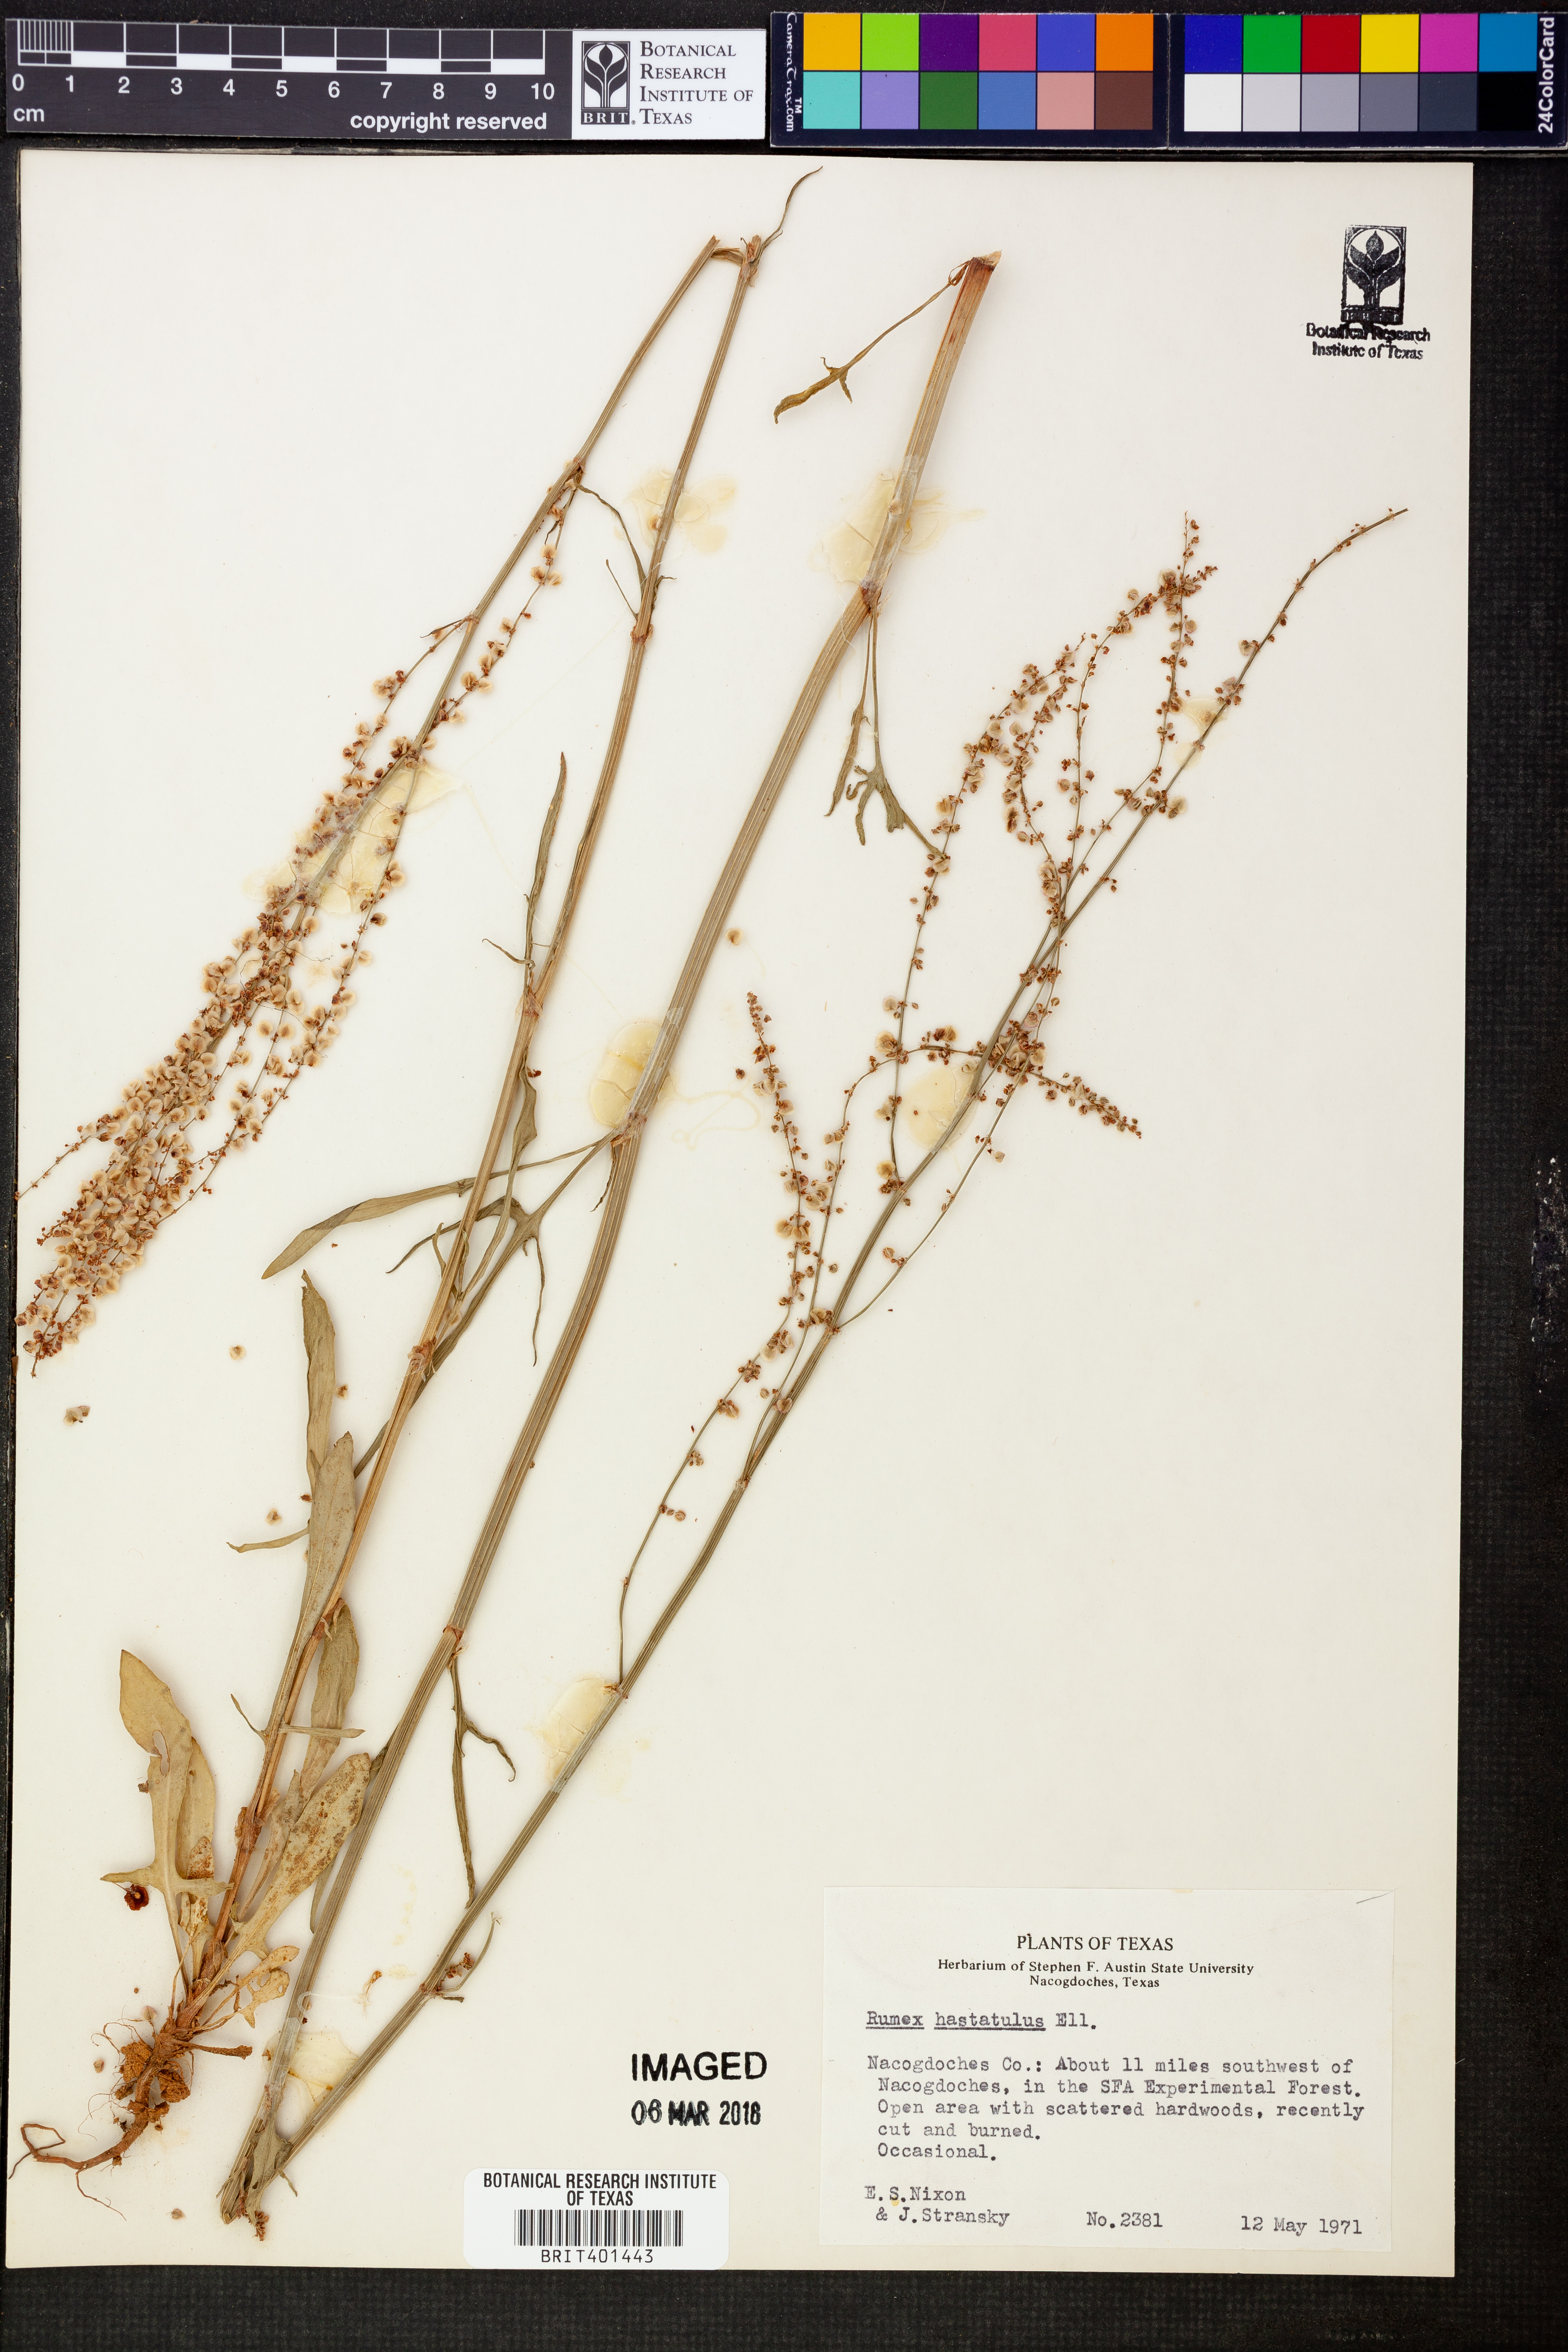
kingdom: Plantae
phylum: Tracheophyta
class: Magnoliopsida
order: Caryophyllales
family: Polygonaceae
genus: Rumex
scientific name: Rumex hastatulus
